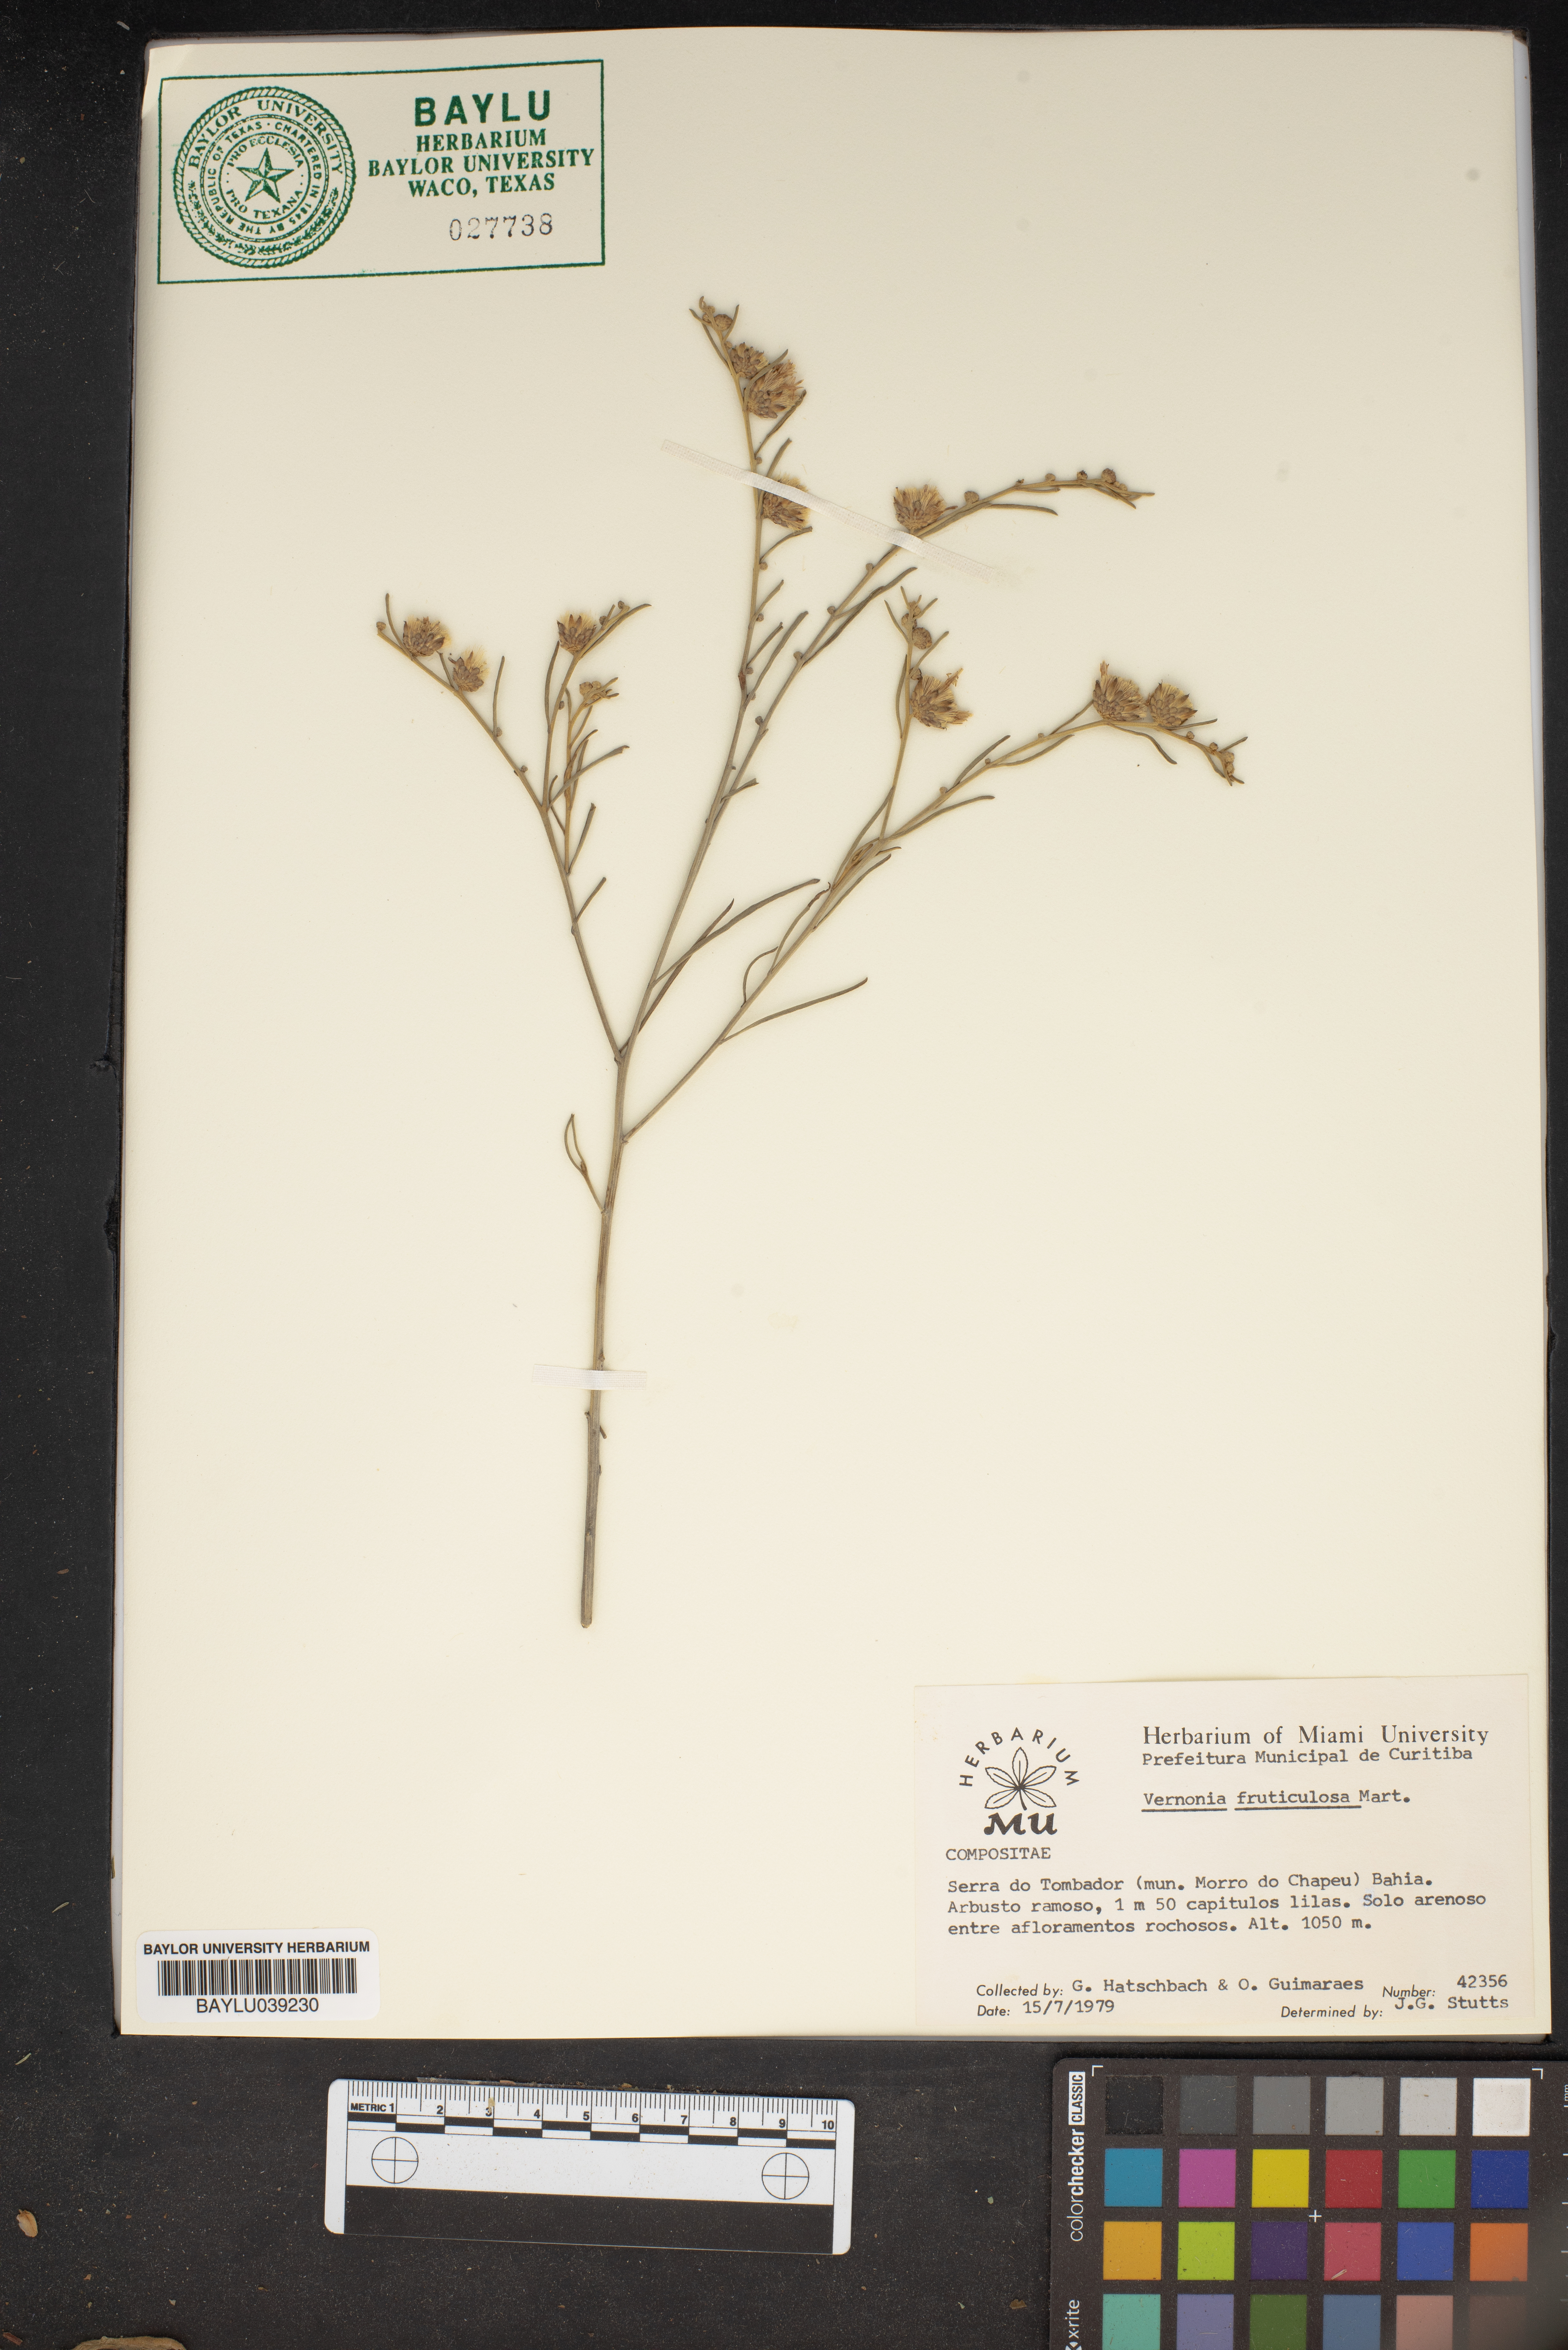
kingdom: Plantae
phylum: Tracheophyta
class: Magnoliopsida
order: Asterales
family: Asteraceae
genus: Lepidaploa
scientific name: Lepidaploa rufogrisea
